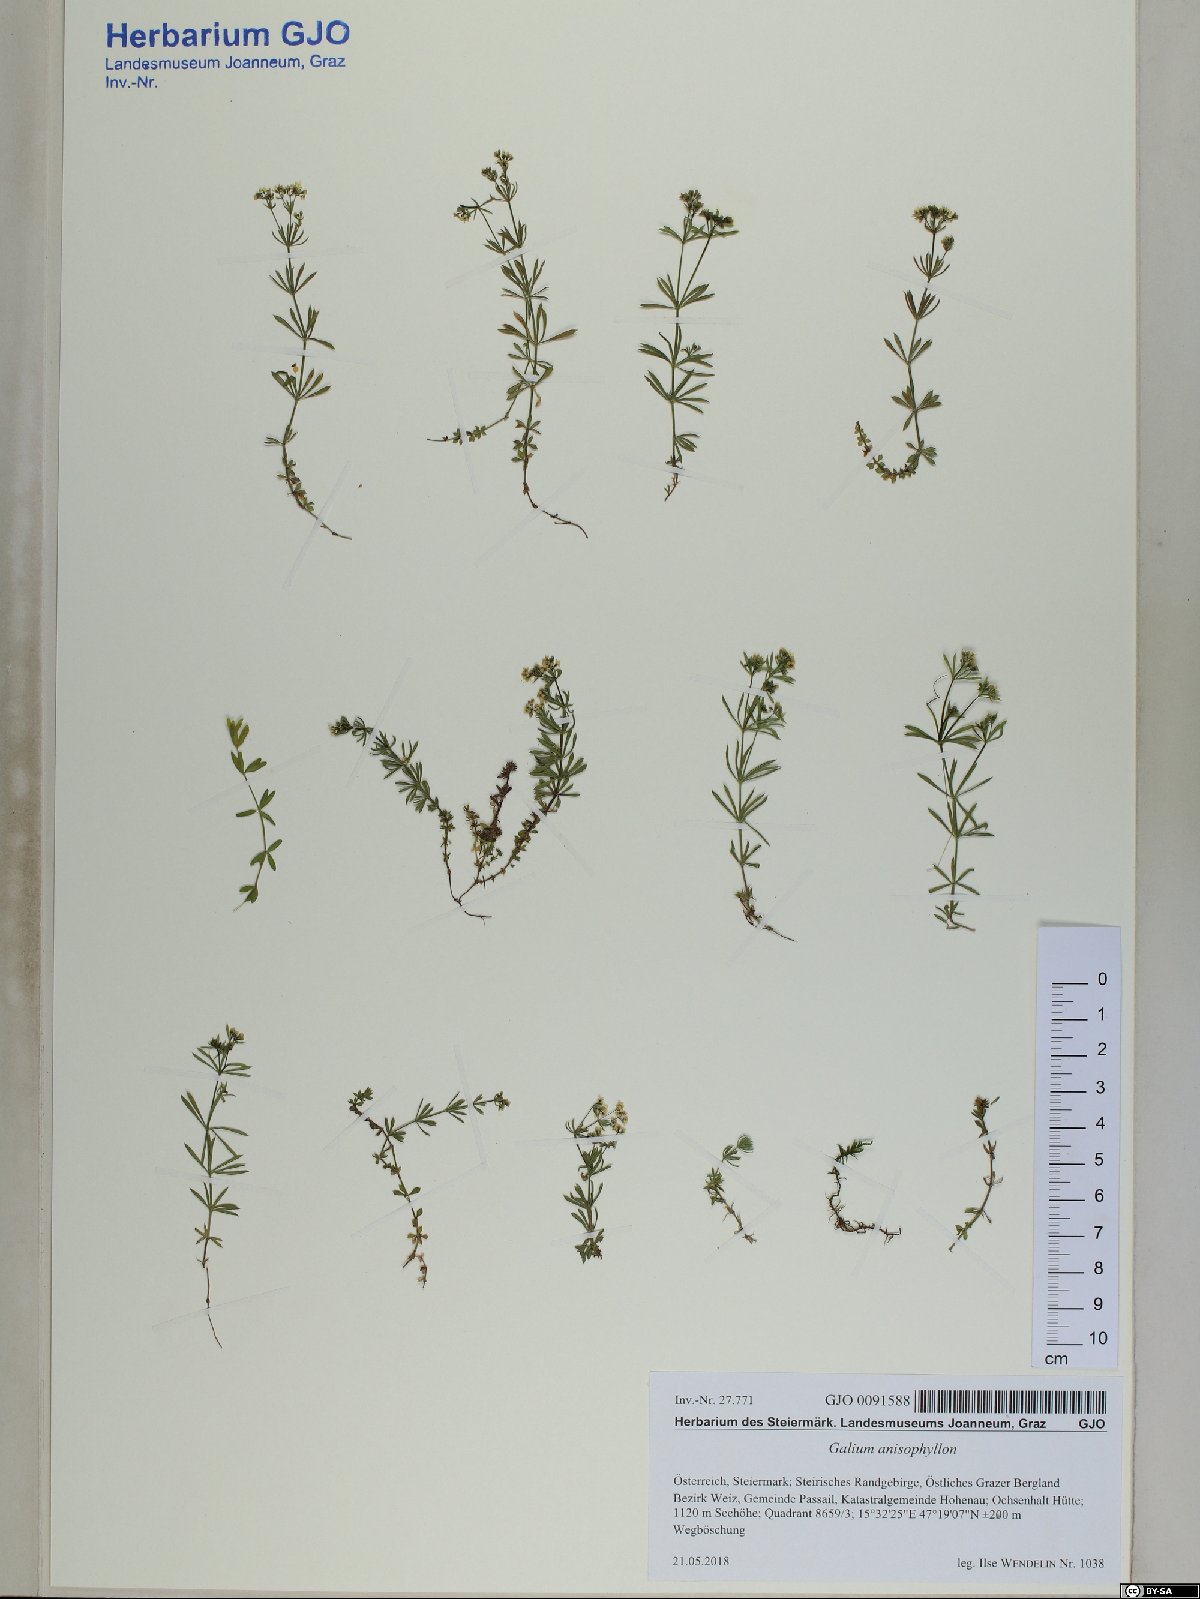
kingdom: Plantae
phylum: Tracheophyta
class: Magnoliopsida
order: Gentianales
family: Rubiaceae
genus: Galium
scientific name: Galium anisophyllon
